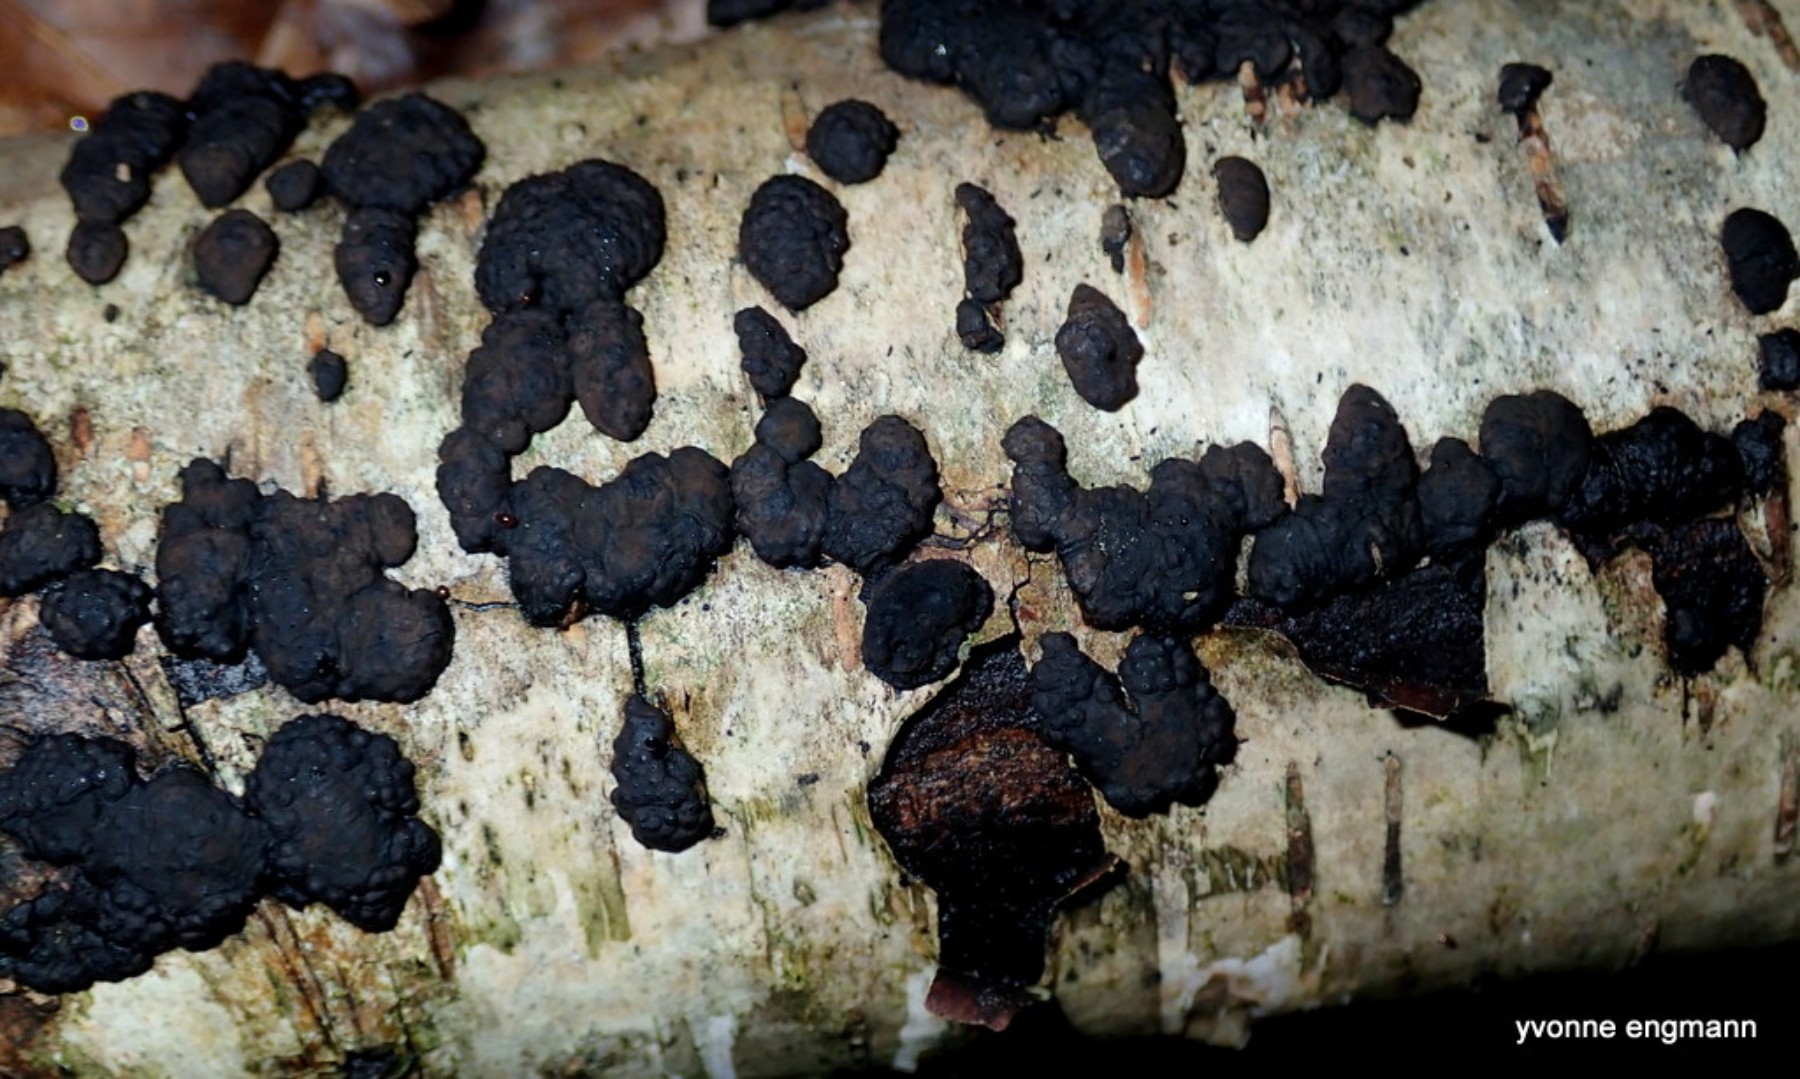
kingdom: Fungi
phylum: Ascomycota
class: Sordariomycetes
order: Xylariales
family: Hypoxylaceae
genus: Jackrogersella
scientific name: Jackrogersella multiformis
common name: foranderlig kulbær
